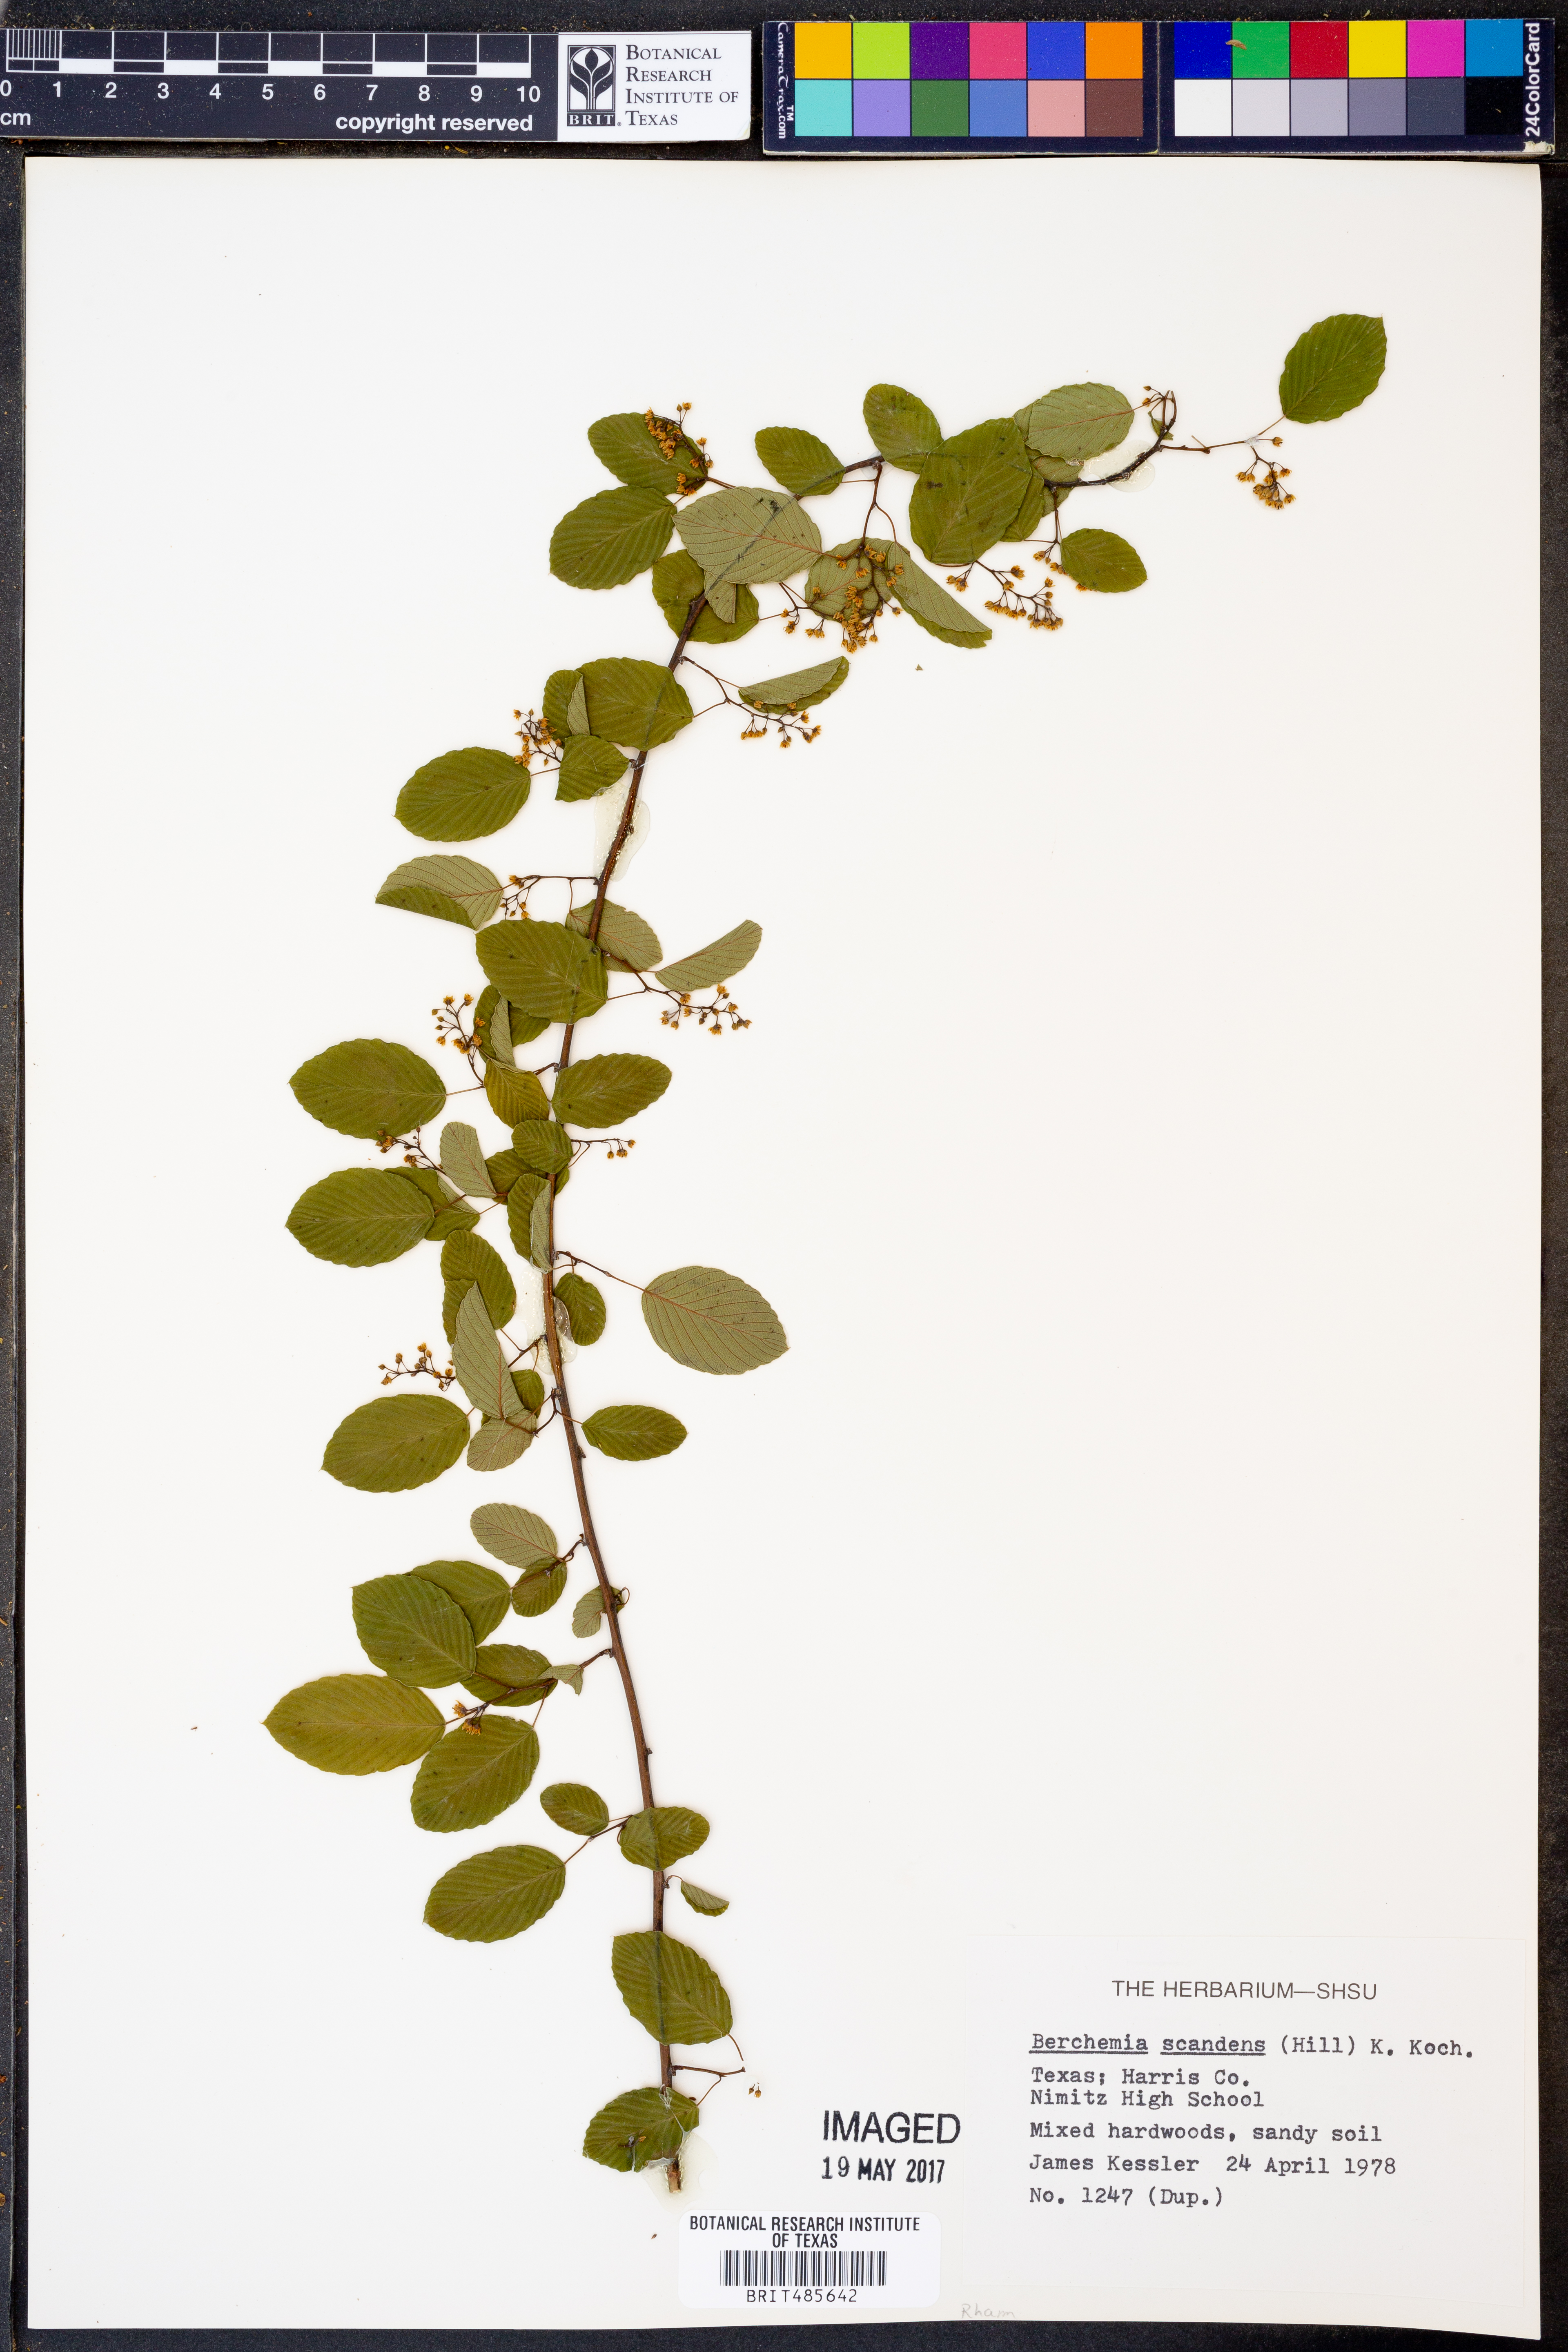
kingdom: Plantae
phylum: Tracheophyta
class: Magnoliopsida
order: Rosales
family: Rhamnaceae
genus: Berchemia
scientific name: Berchemia scandens
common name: Supplejack
